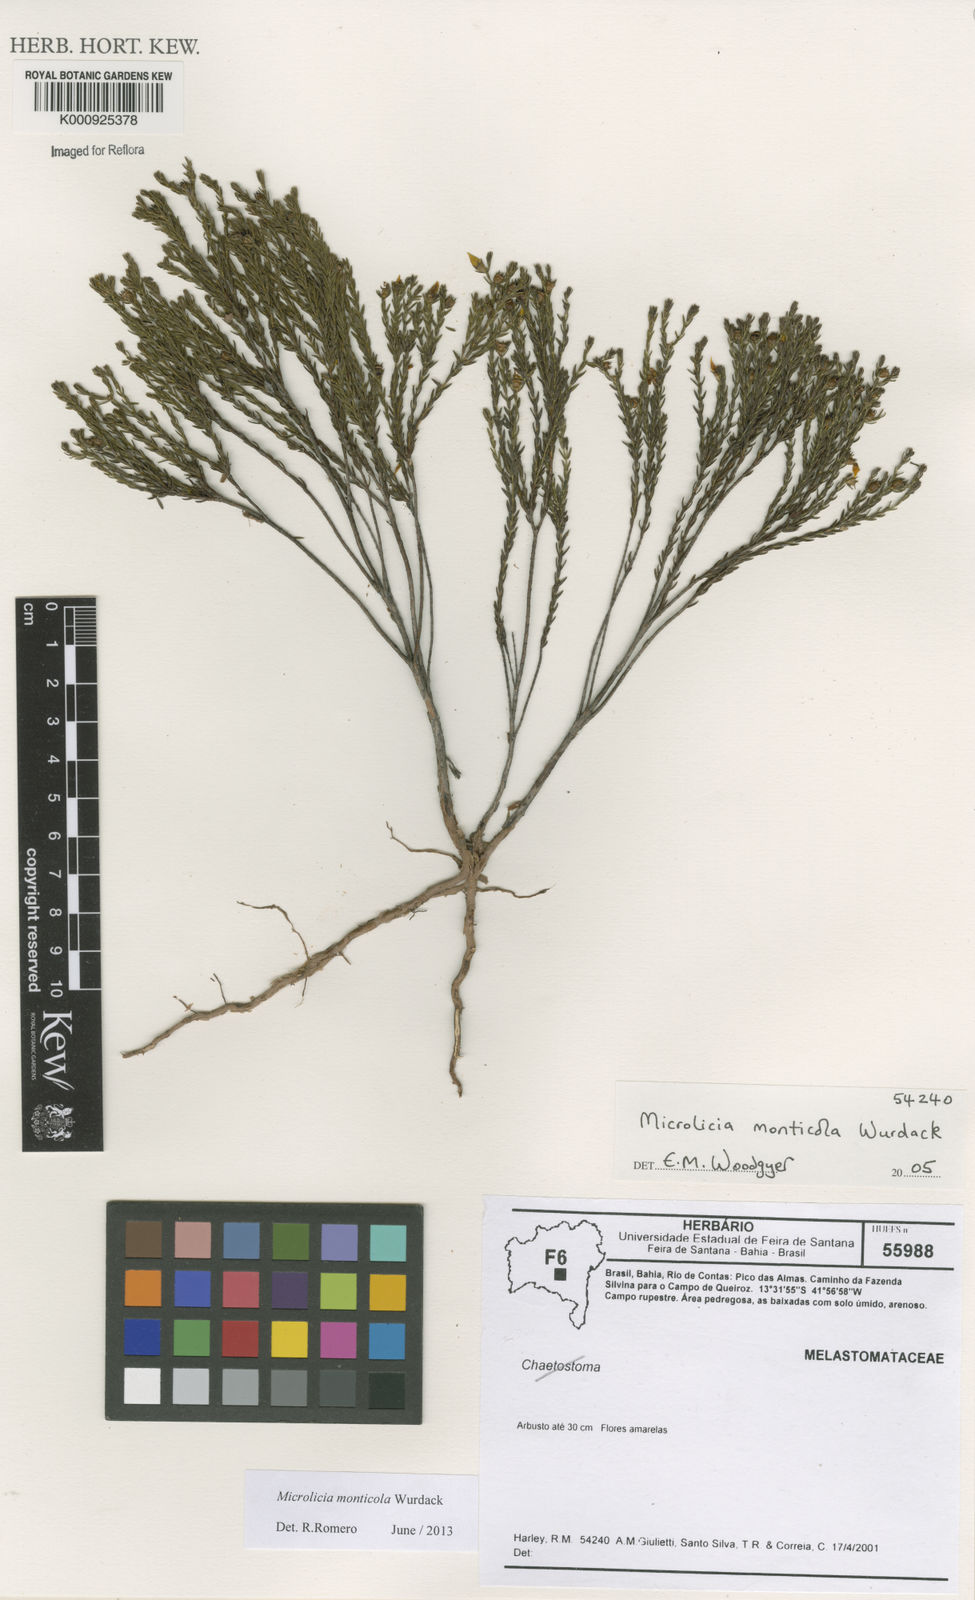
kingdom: Plantae
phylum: Tracheophyta
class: Magnoliopsida
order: Myrtales
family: Melastomataceae
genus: Microlicia
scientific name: Microlicia monticola
